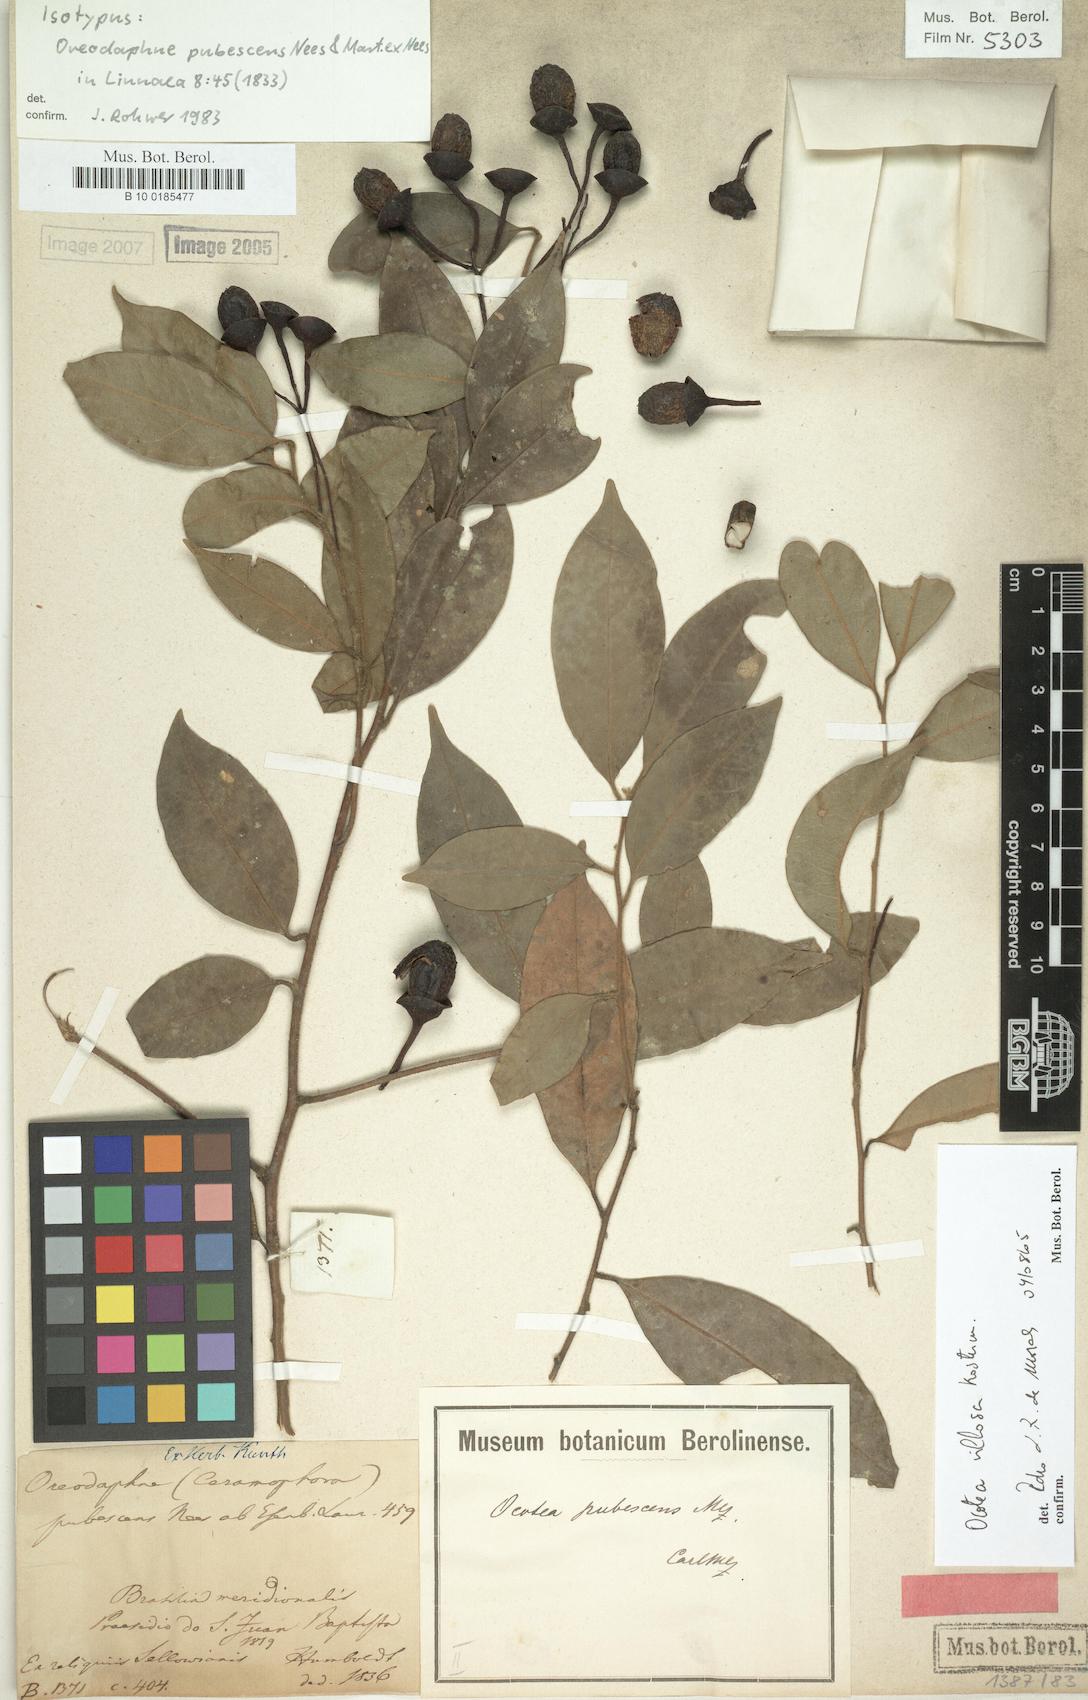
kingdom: Plantae
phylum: Tracheophyta
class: Magnoliopsida
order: Laurales
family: Lauraceae
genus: Ocotea
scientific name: Ocotea villosa
